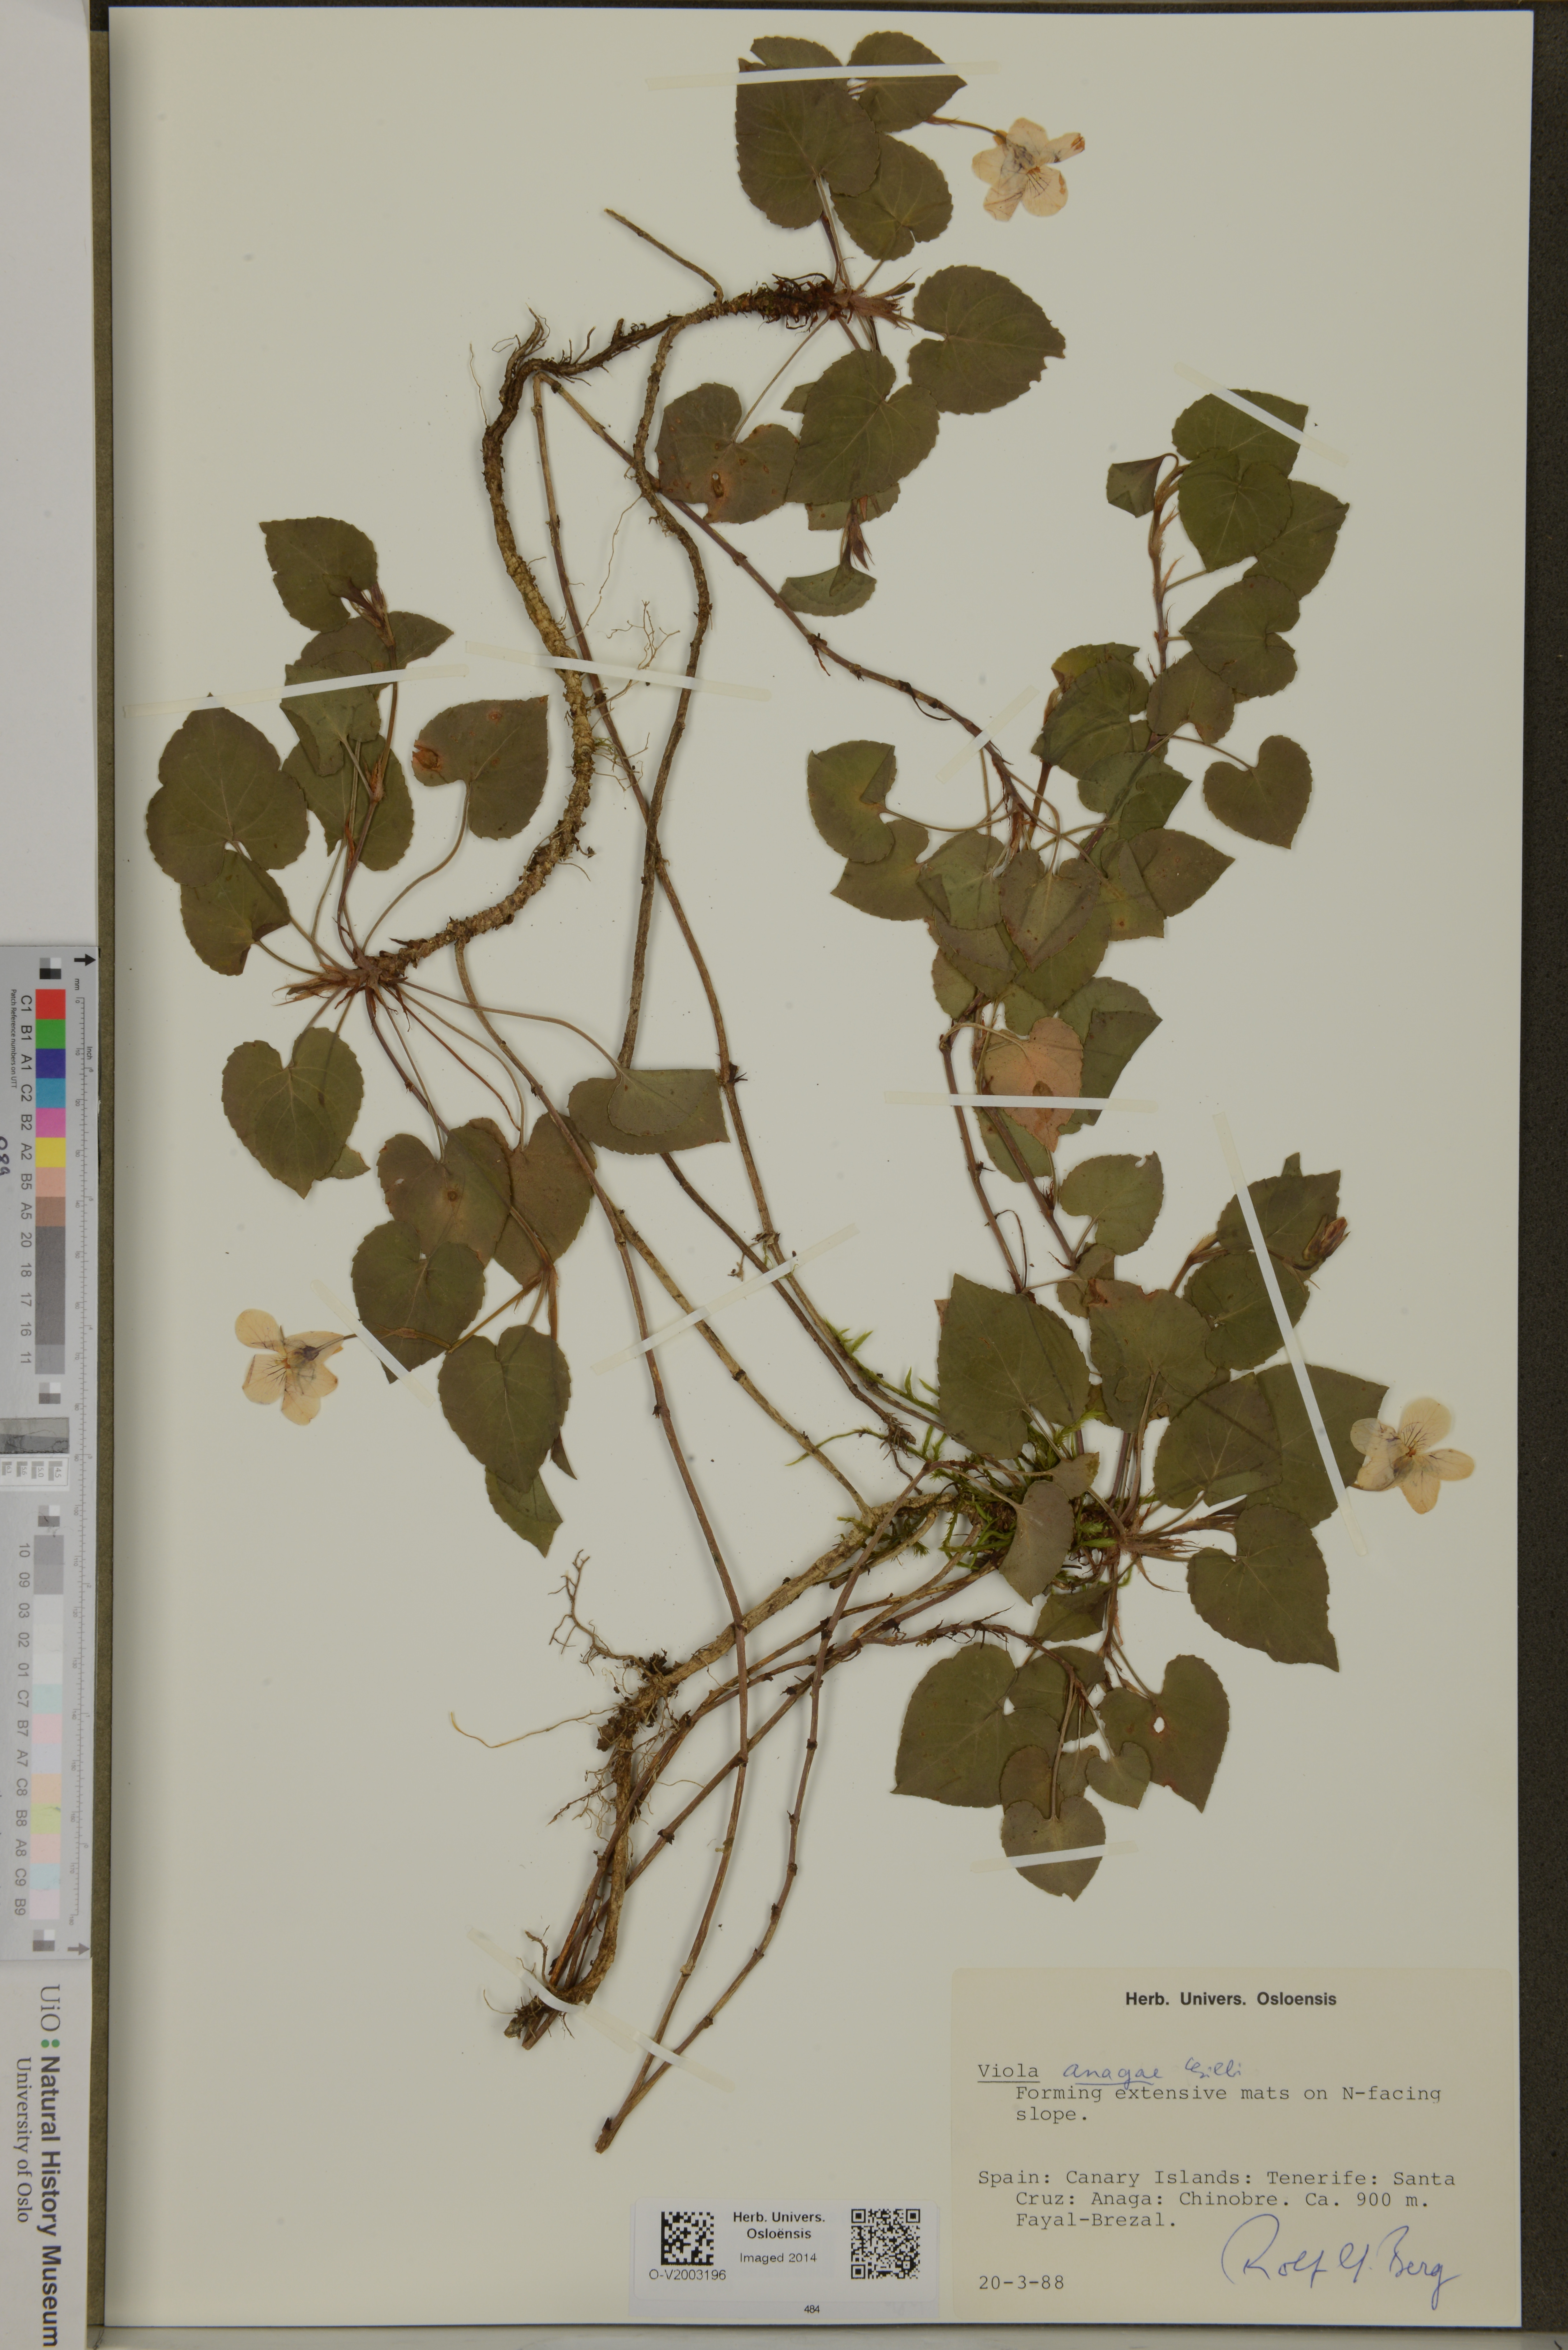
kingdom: Plantae
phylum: Tracheophyta
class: Magnoliopsida
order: Malpighiales
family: Violaceae
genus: Viola
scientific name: Viola anagae
